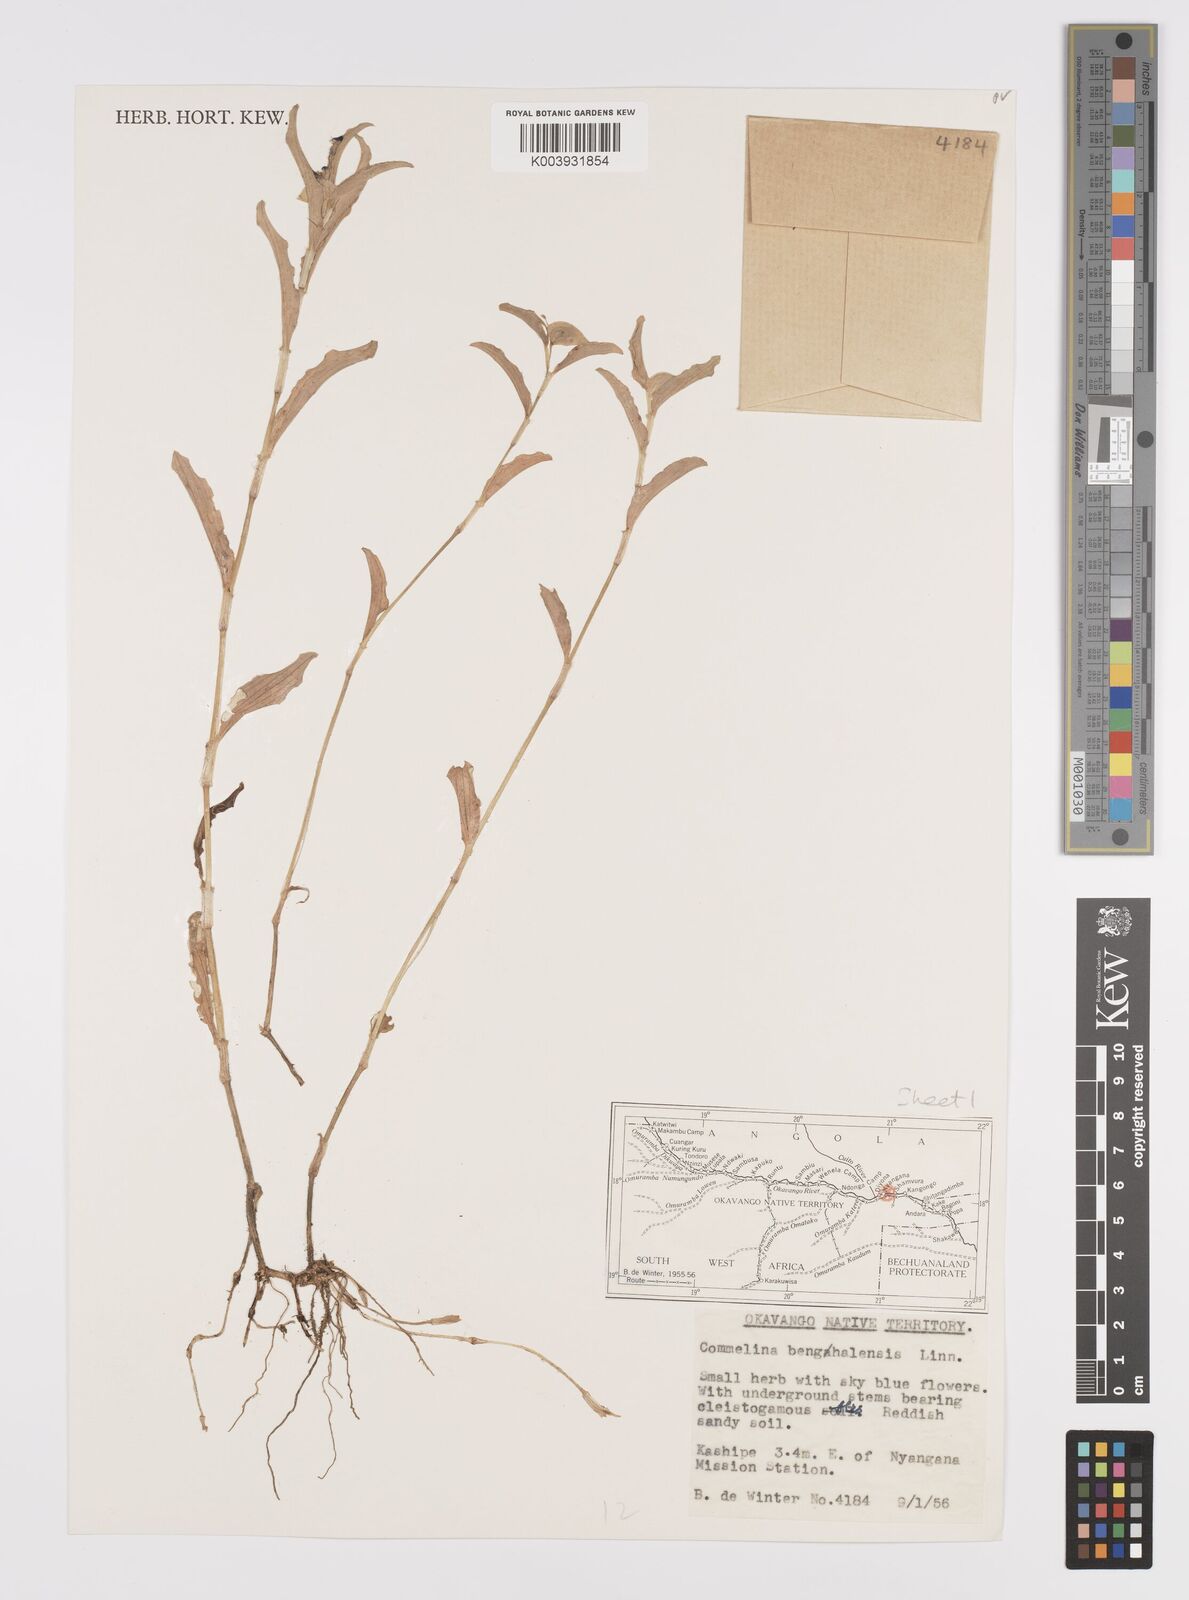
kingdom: Plantae
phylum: Tracheophyta
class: Liliopsida
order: Commelinales
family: Commelinaceae
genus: Commelina
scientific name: Commelina forskaolii
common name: Rat's ear
